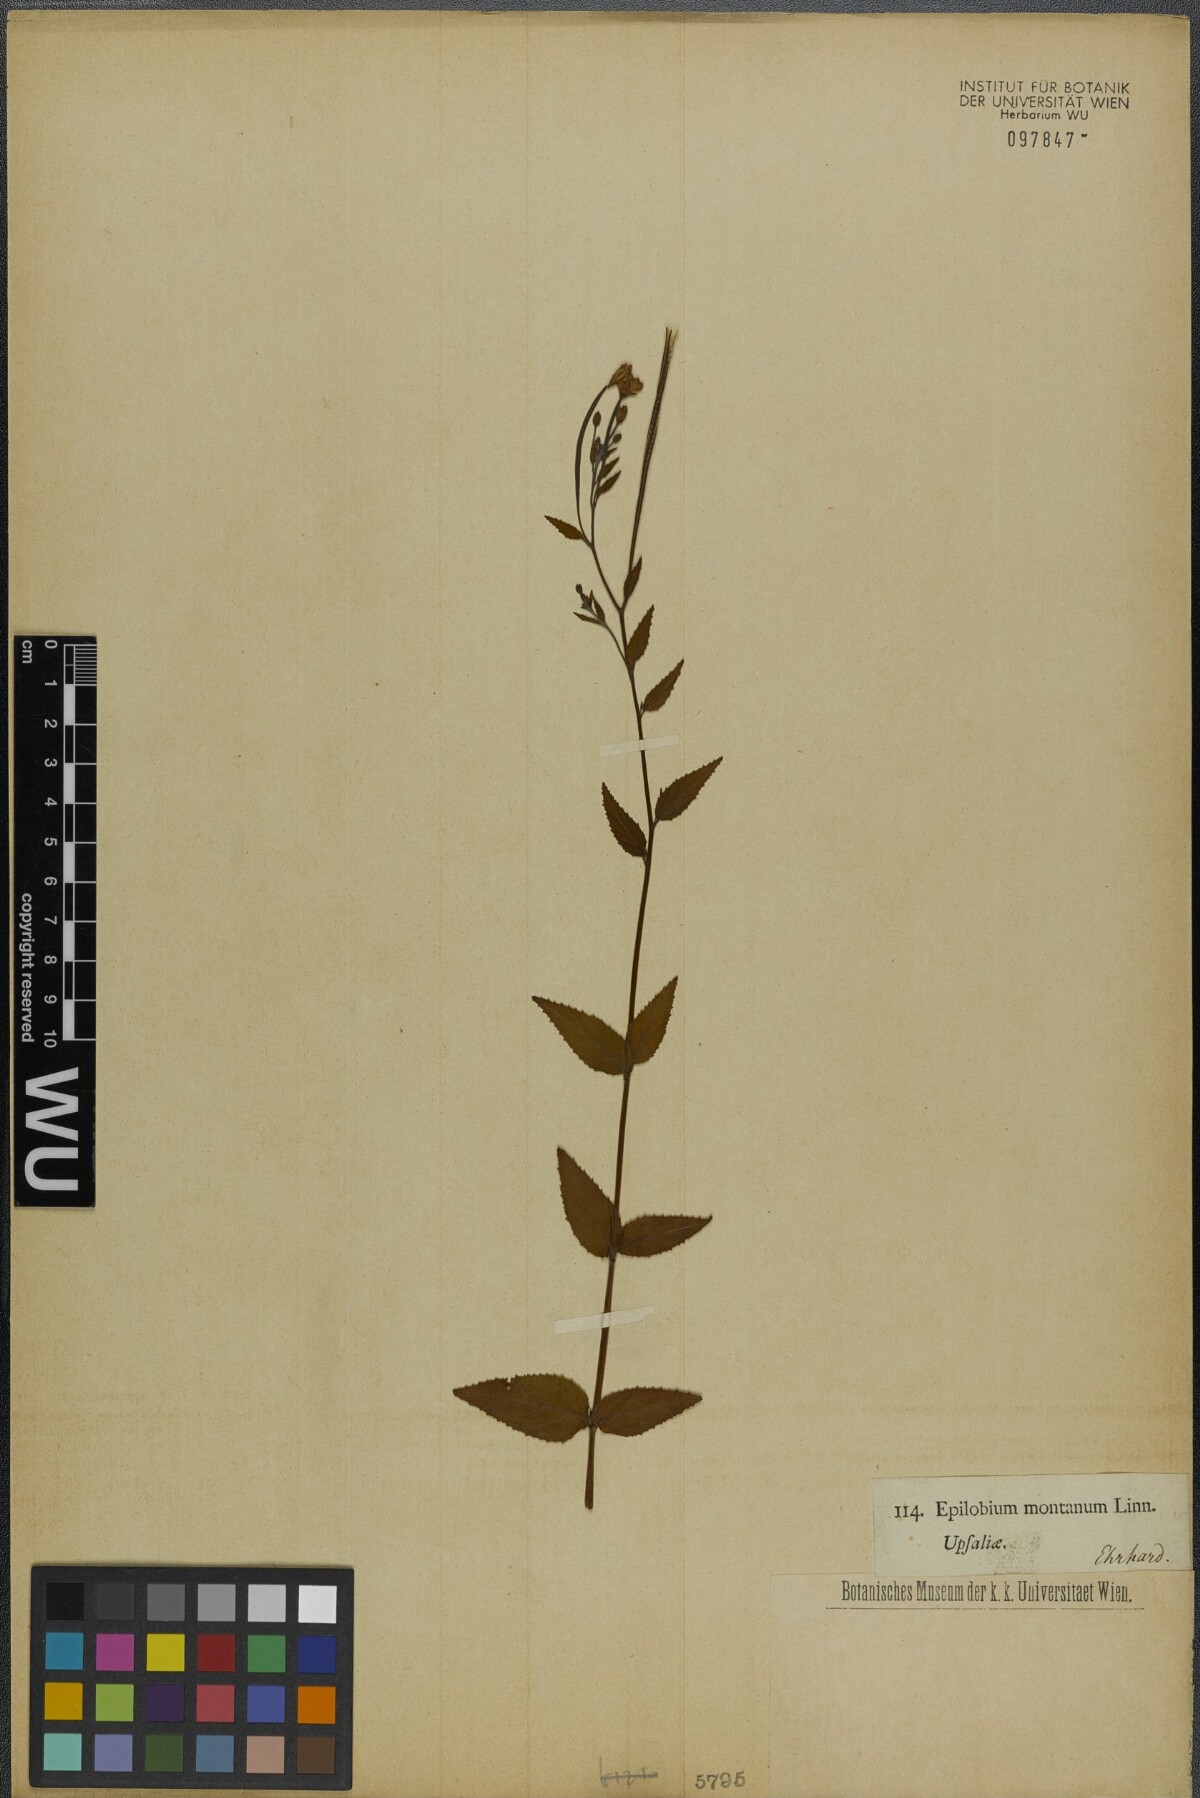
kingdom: Plantae
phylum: Tracheophyta
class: Magnoliopsida
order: Myrtales
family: Onagraceae
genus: Epilobium
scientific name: Epilobium montanum
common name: Broad-leaved willowherb
